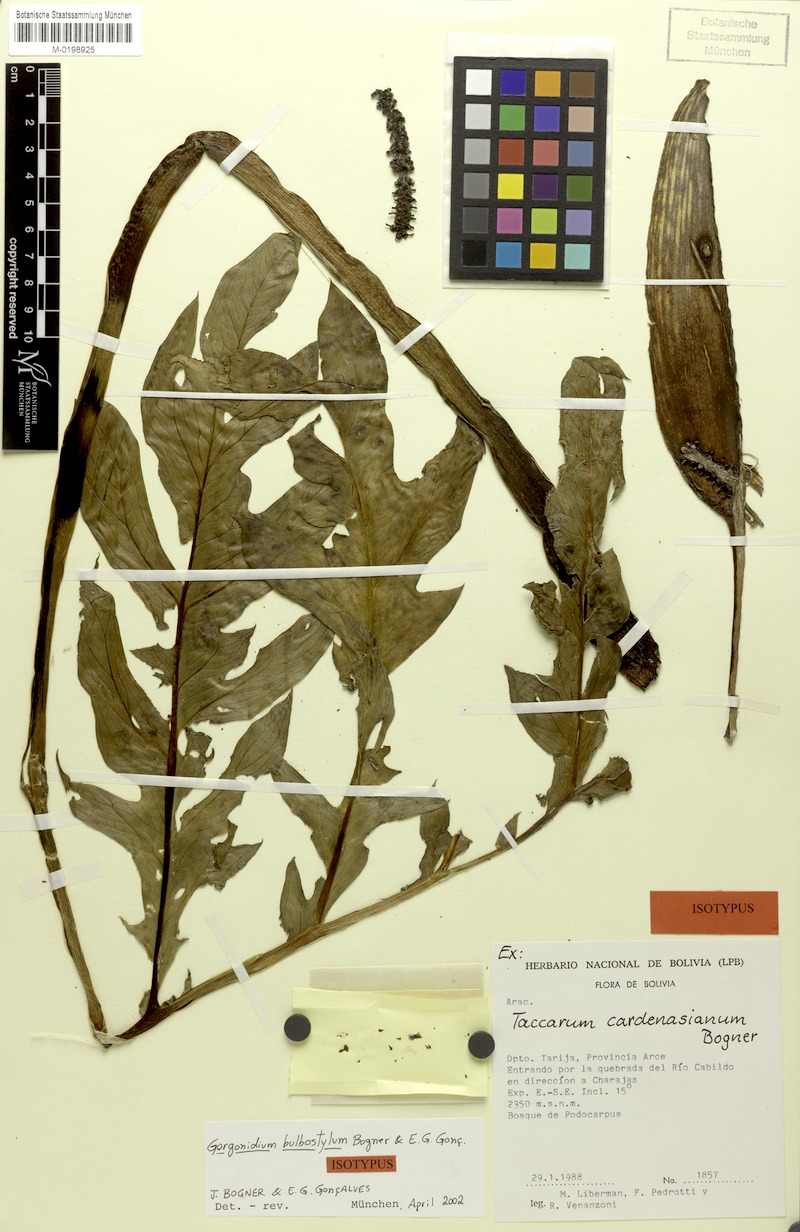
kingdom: Plantae
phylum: Tracheophyta
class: Liliopsida
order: Alismatales
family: Araceae
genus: Gorgonidium
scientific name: Gorgonidium bulbostylum
